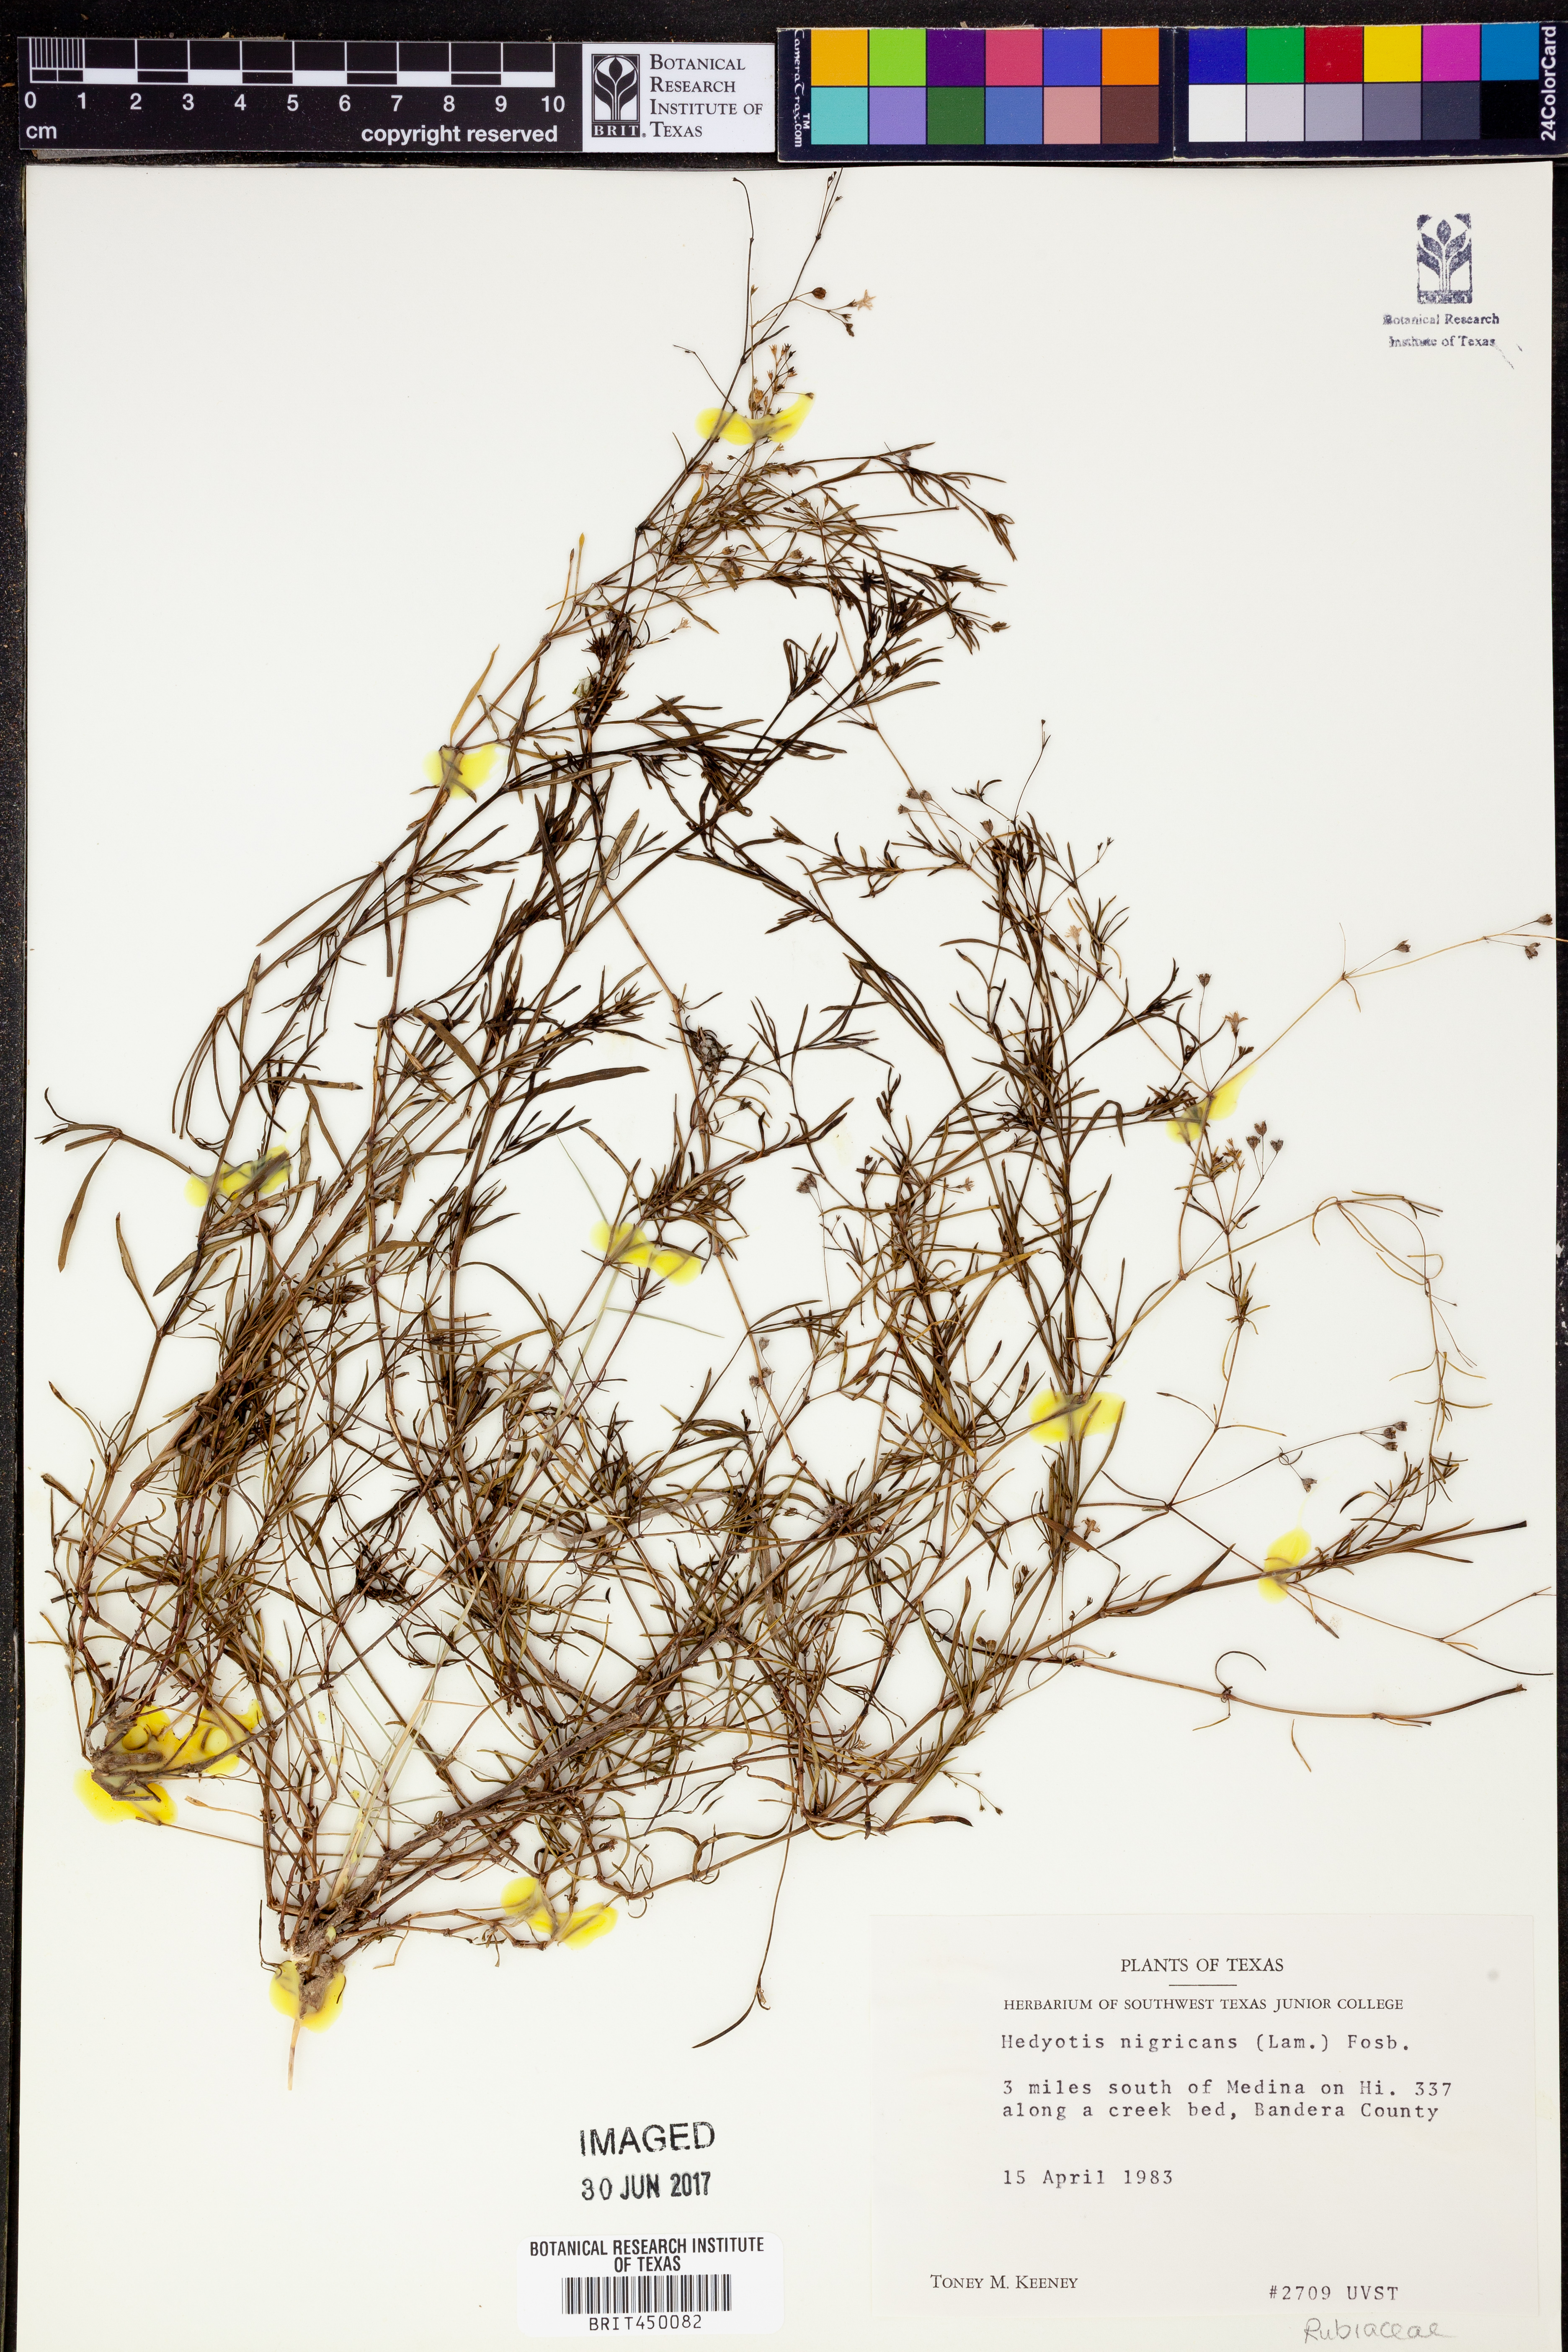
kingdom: Plantae
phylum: Tracheophyta
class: Magnoliopsida
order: Gentianales
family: Rubiaceae
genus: Stenaria
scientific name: Stenaria nigricans
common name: Diamondflowers
